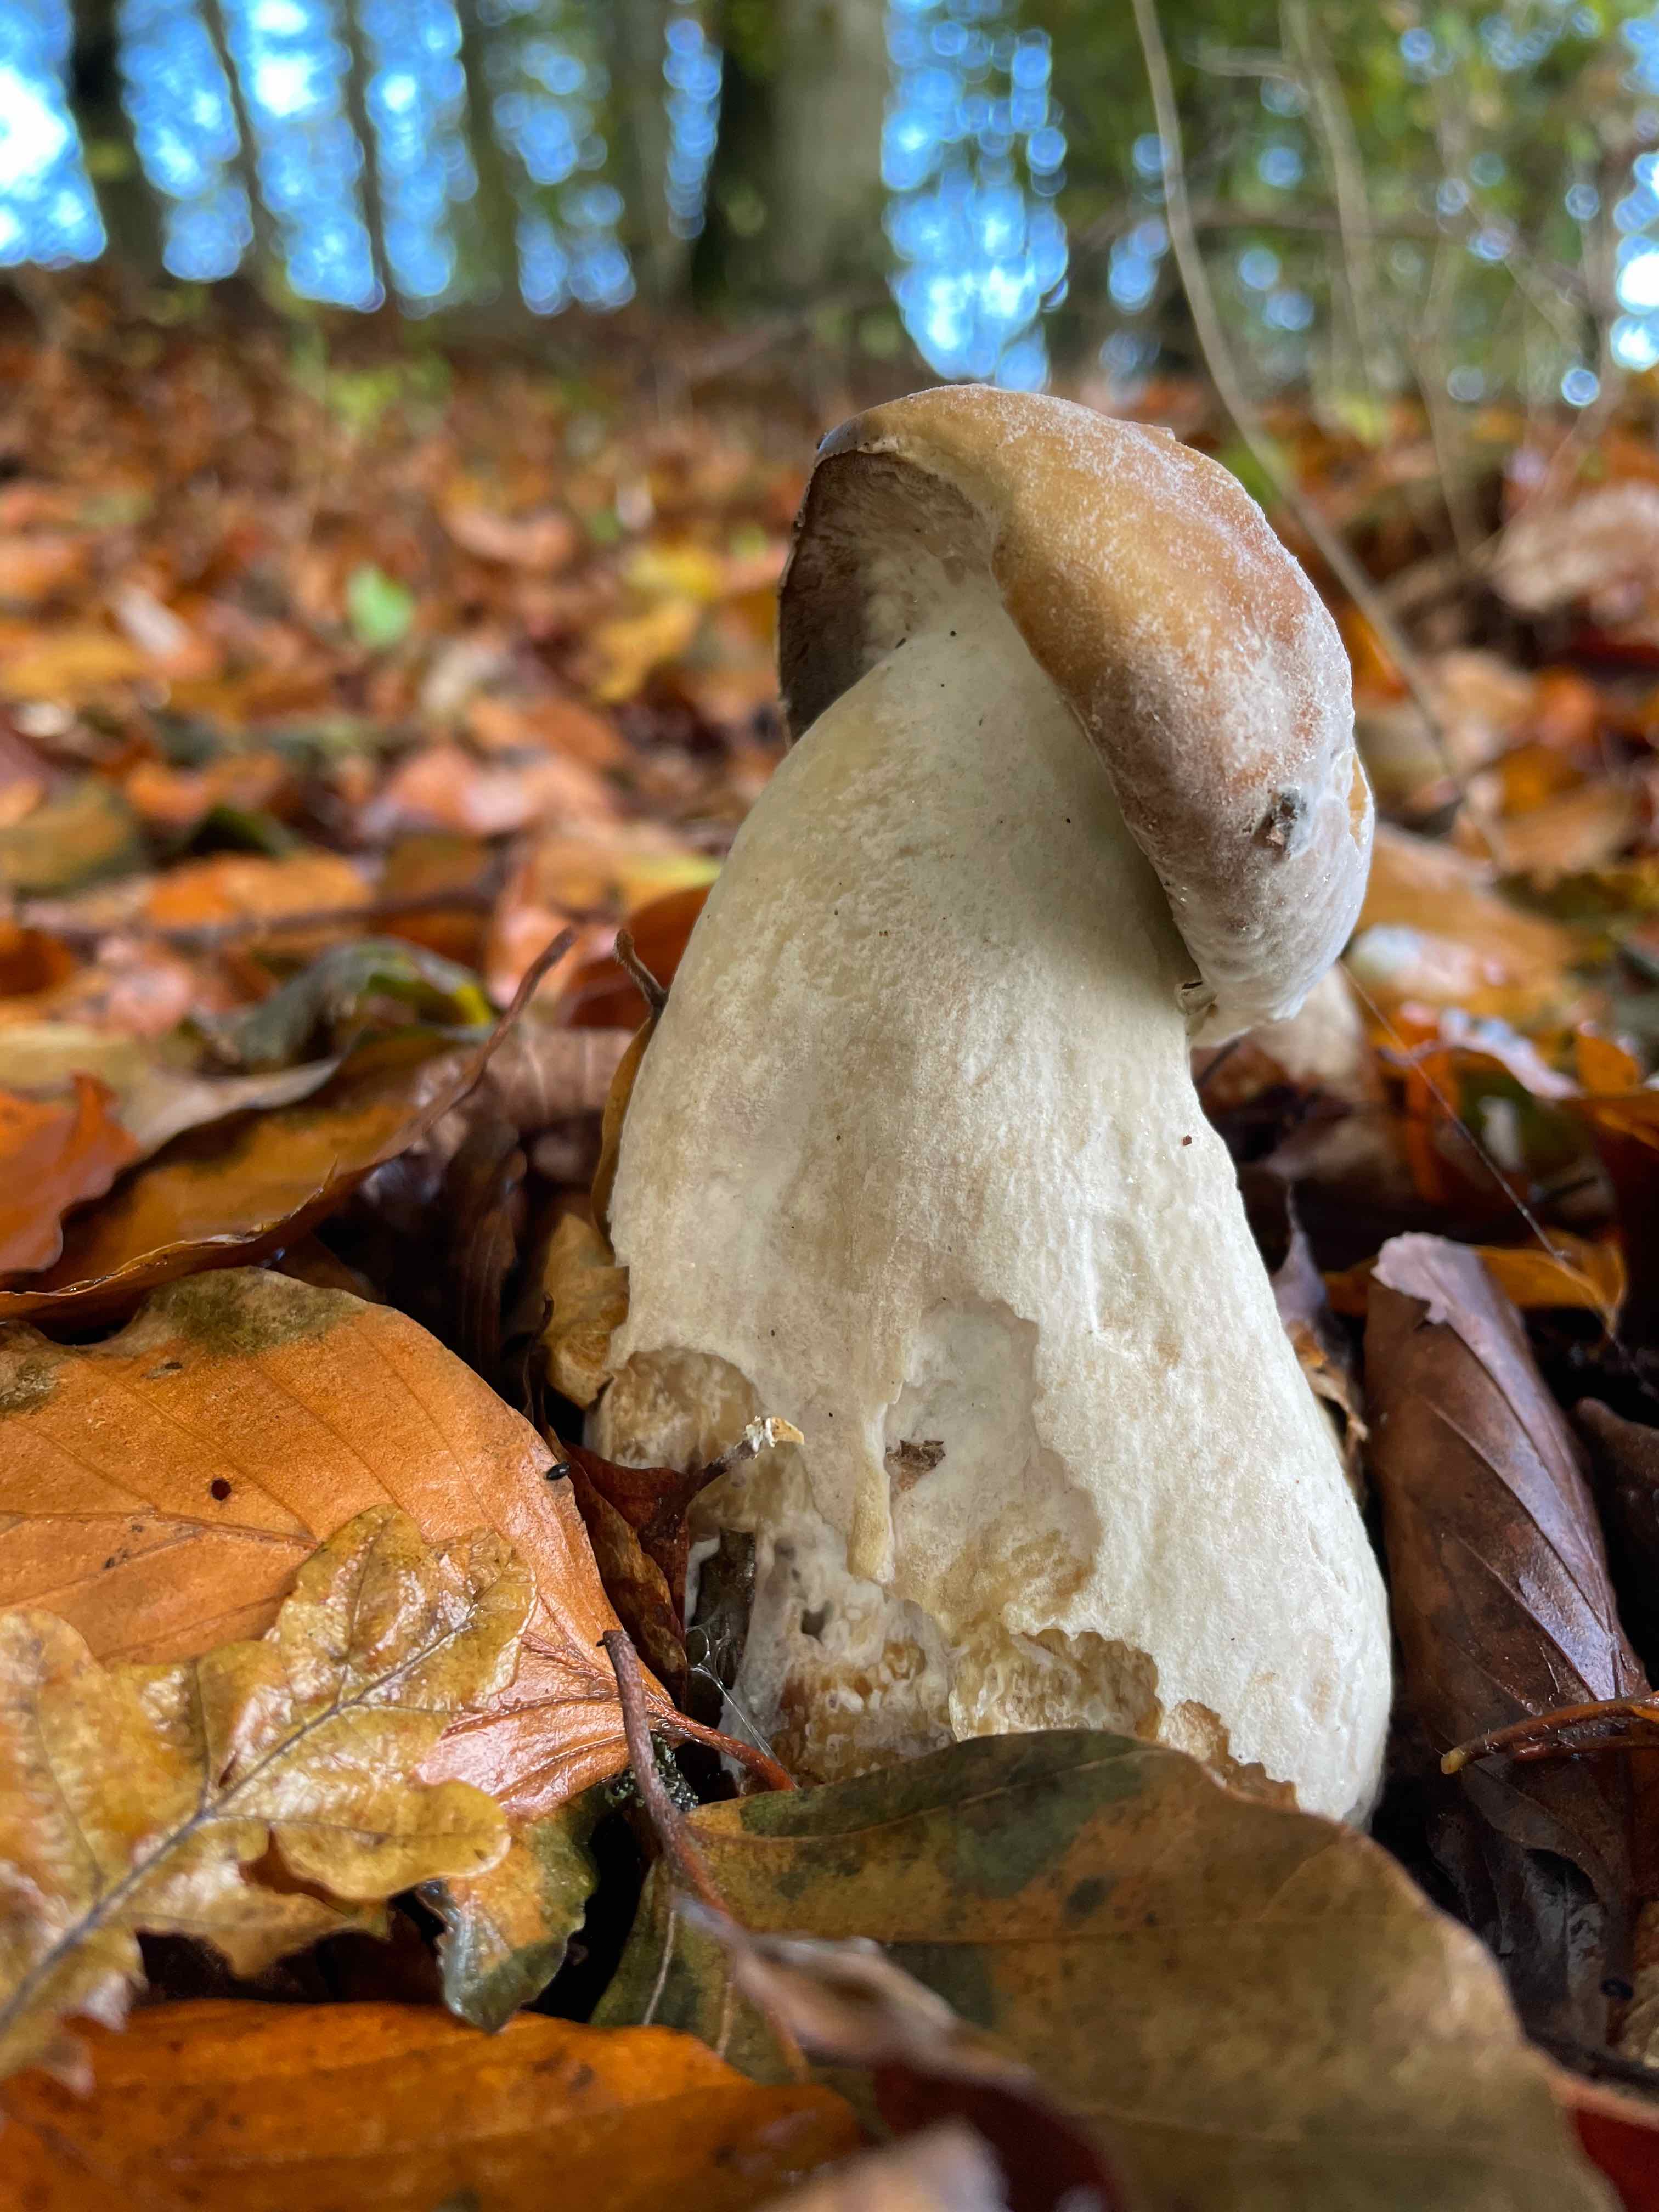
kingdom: Fungi
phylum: Basidiomycota
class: Agaricomycetes
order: Boletales
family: Boletaceae
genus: Boletus
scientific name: Boletus edulis
